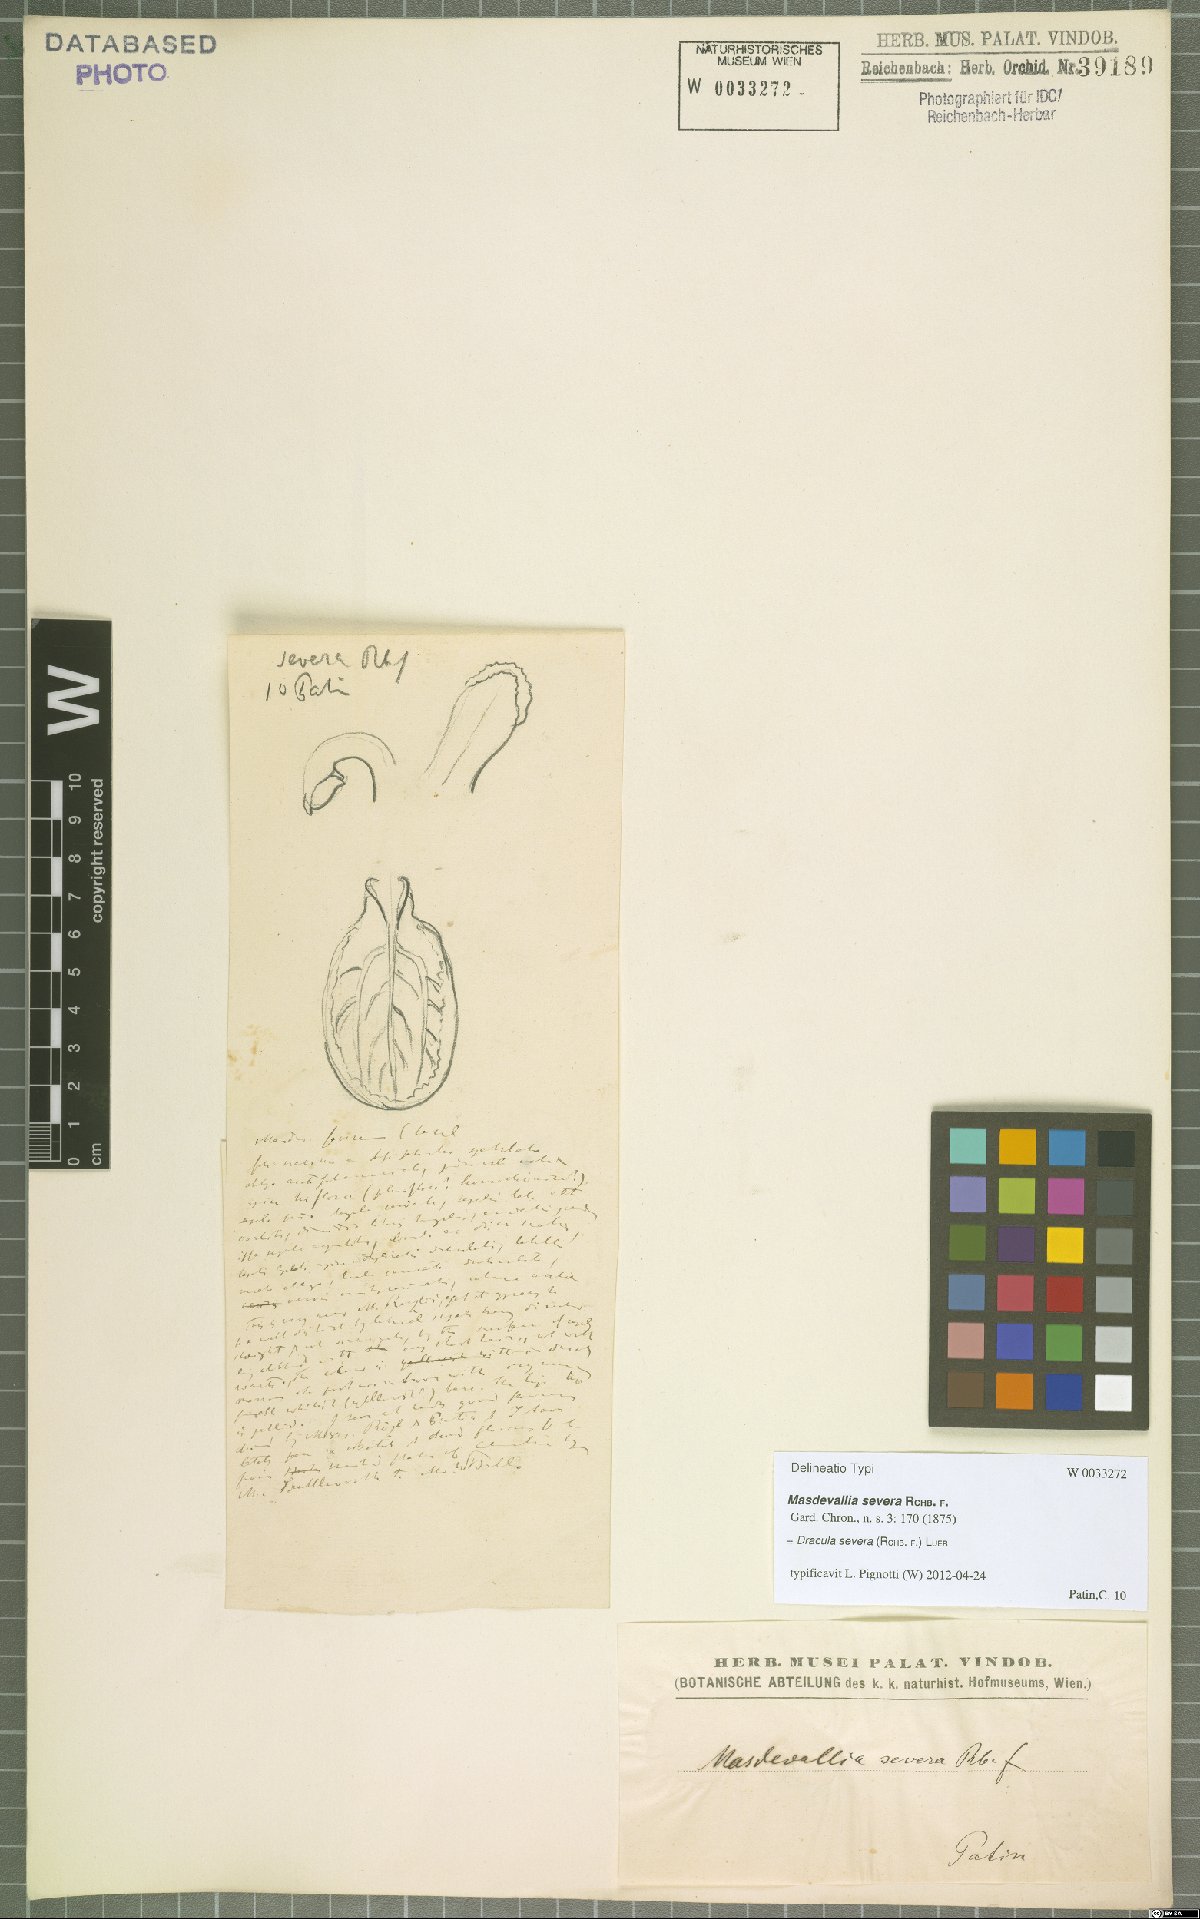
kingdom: Plantae
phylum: Tracheophyta
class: Liliopsida
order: Asparagales
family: Orchidaceae
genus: Dracula
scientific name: Dracula severa
